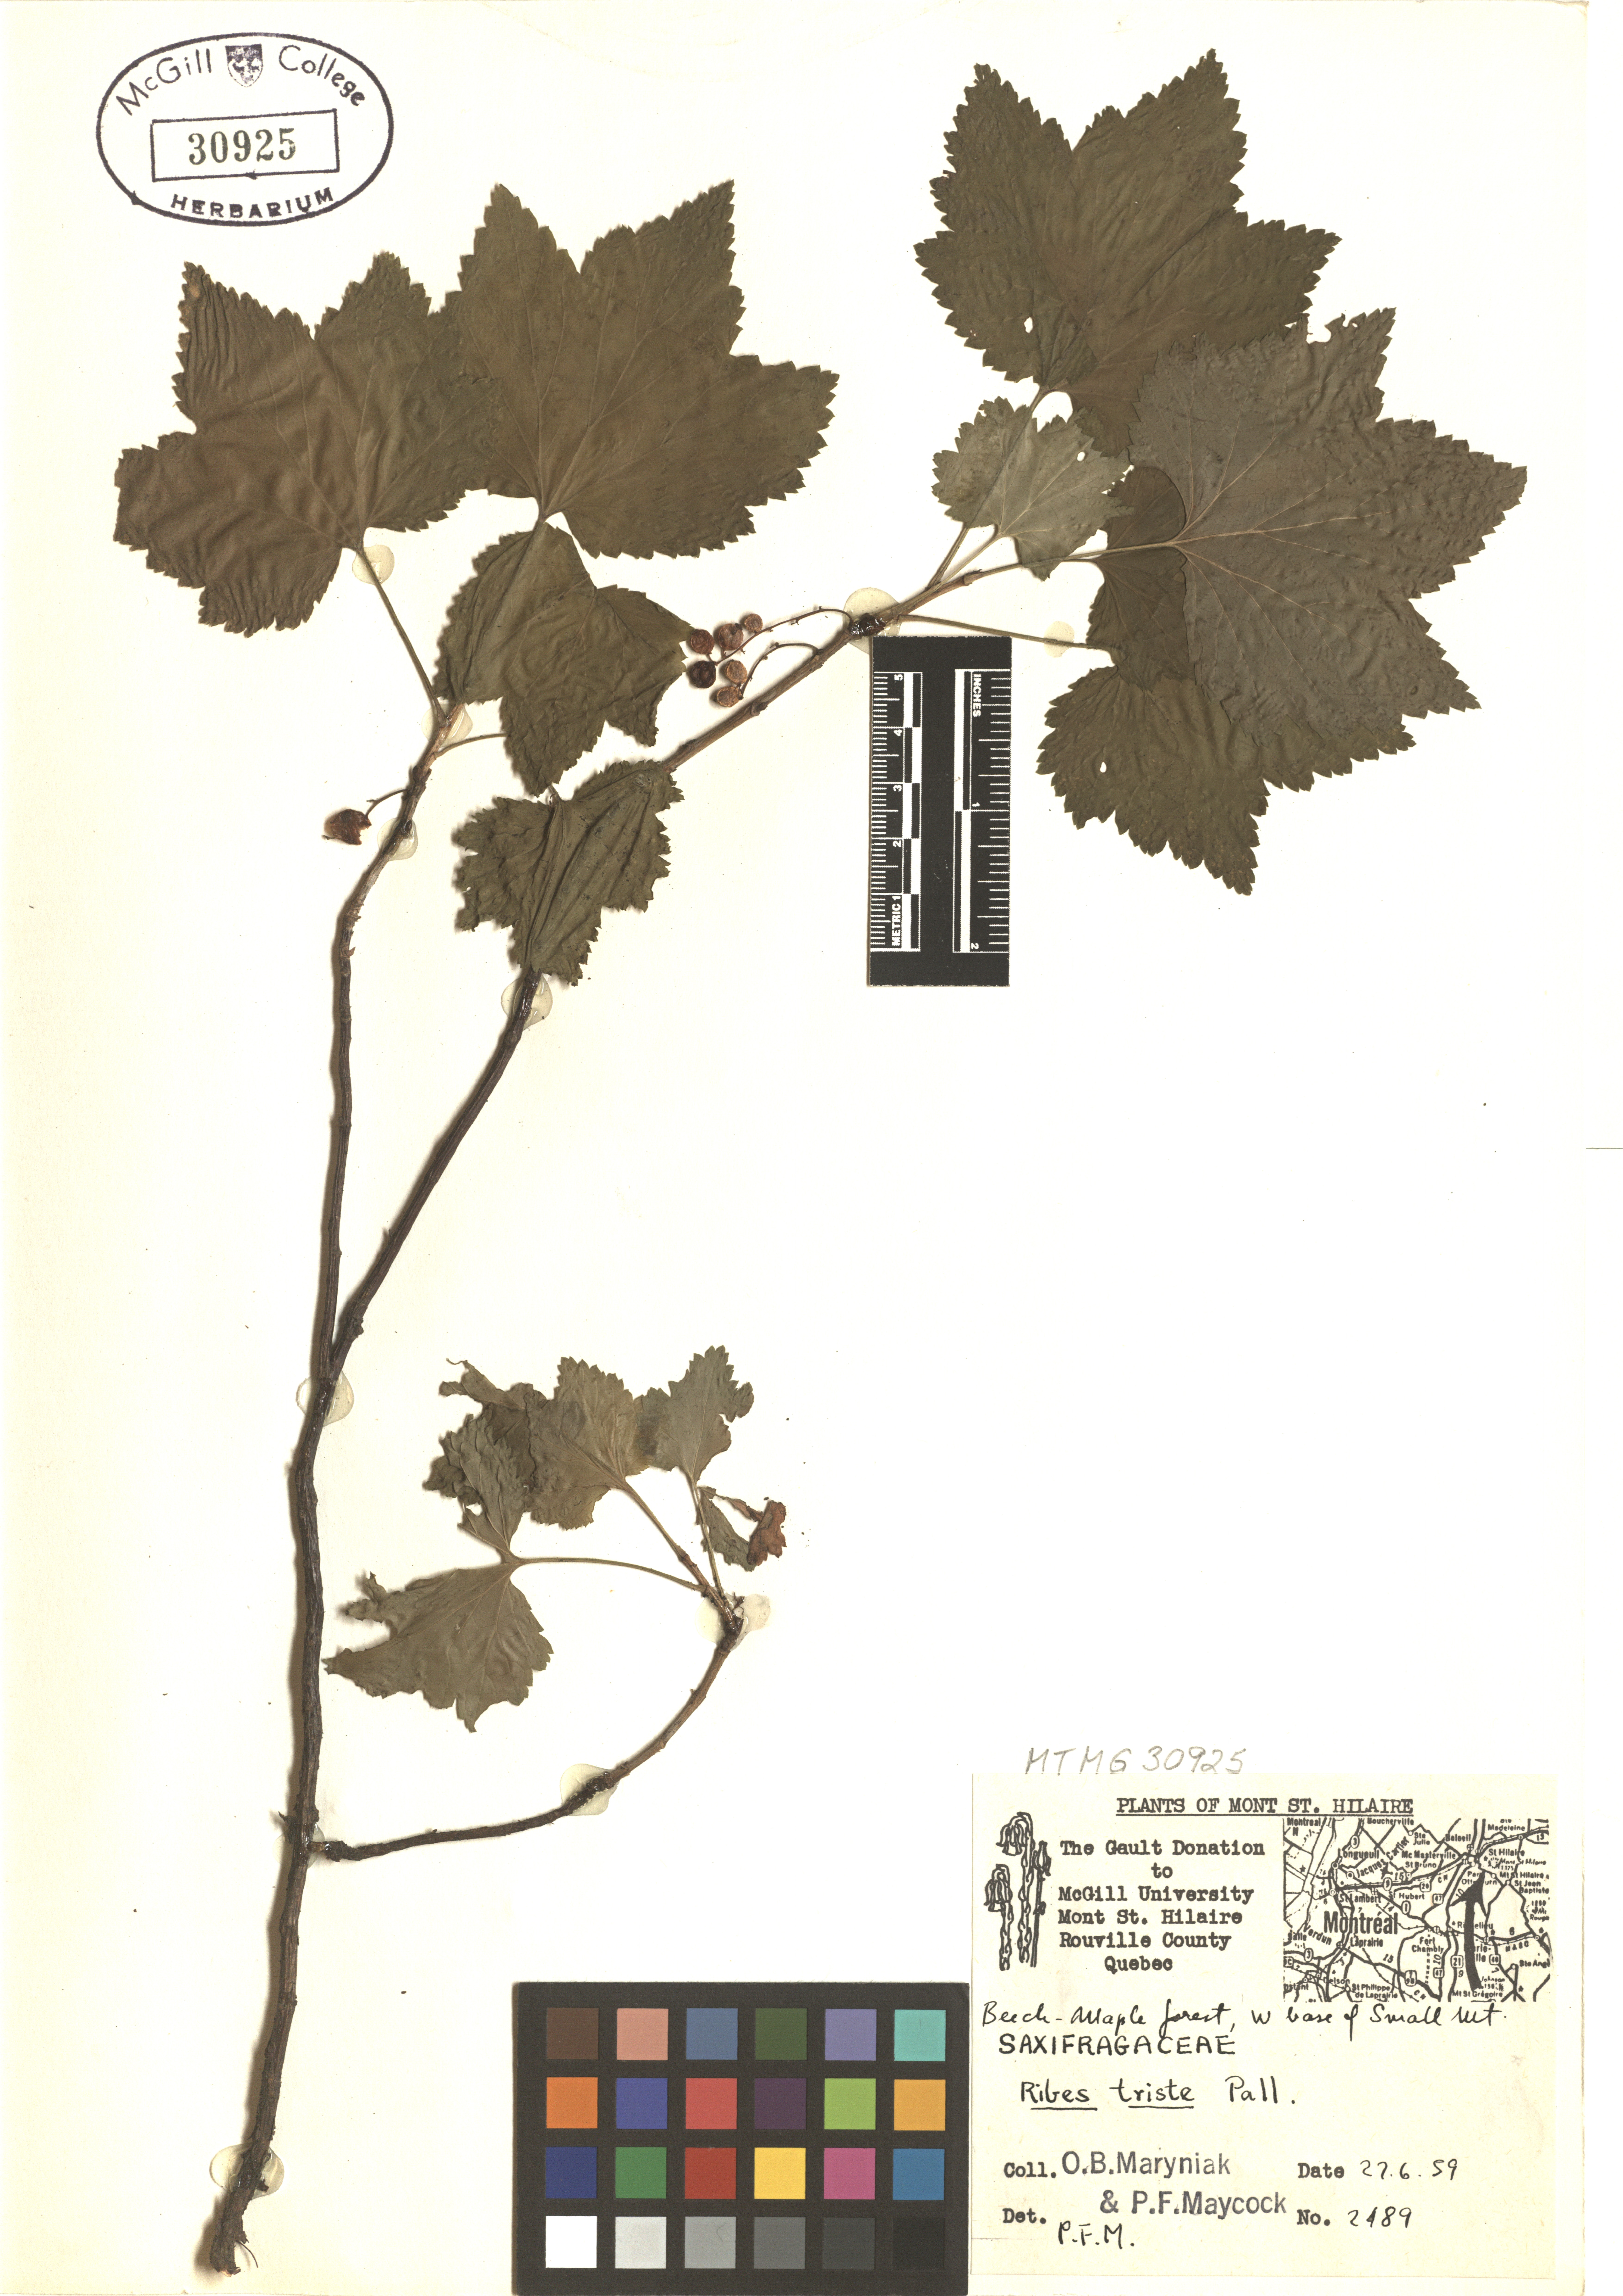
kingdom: Plantae
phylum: Tracheophyta
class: Magnoliopsida
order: Saxifragales
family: Grossulariaceae
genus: Ribes
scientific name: Ribes triste
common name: Swamp red currant
